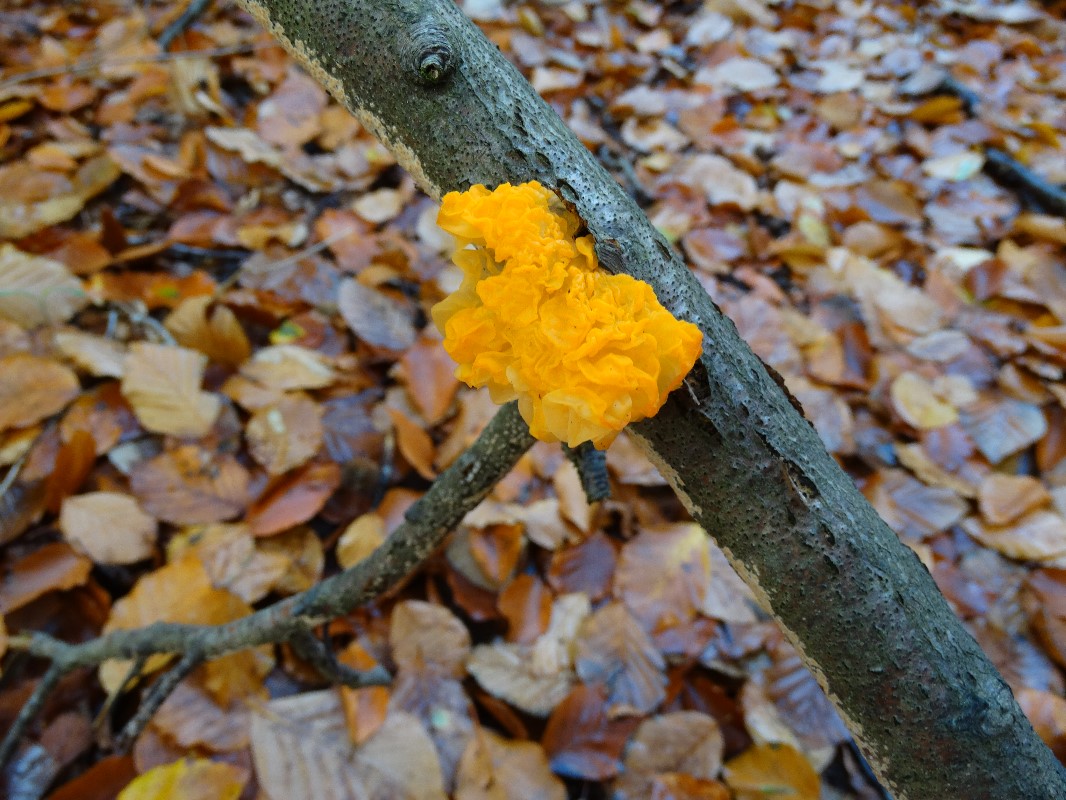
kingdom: Fungi
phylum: Basidiomycota
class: Tremellomycetes
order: Tremellales
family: Tremellaceae
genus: Tremella
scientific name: Tremella mesenterica
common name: gul bævresvamp
